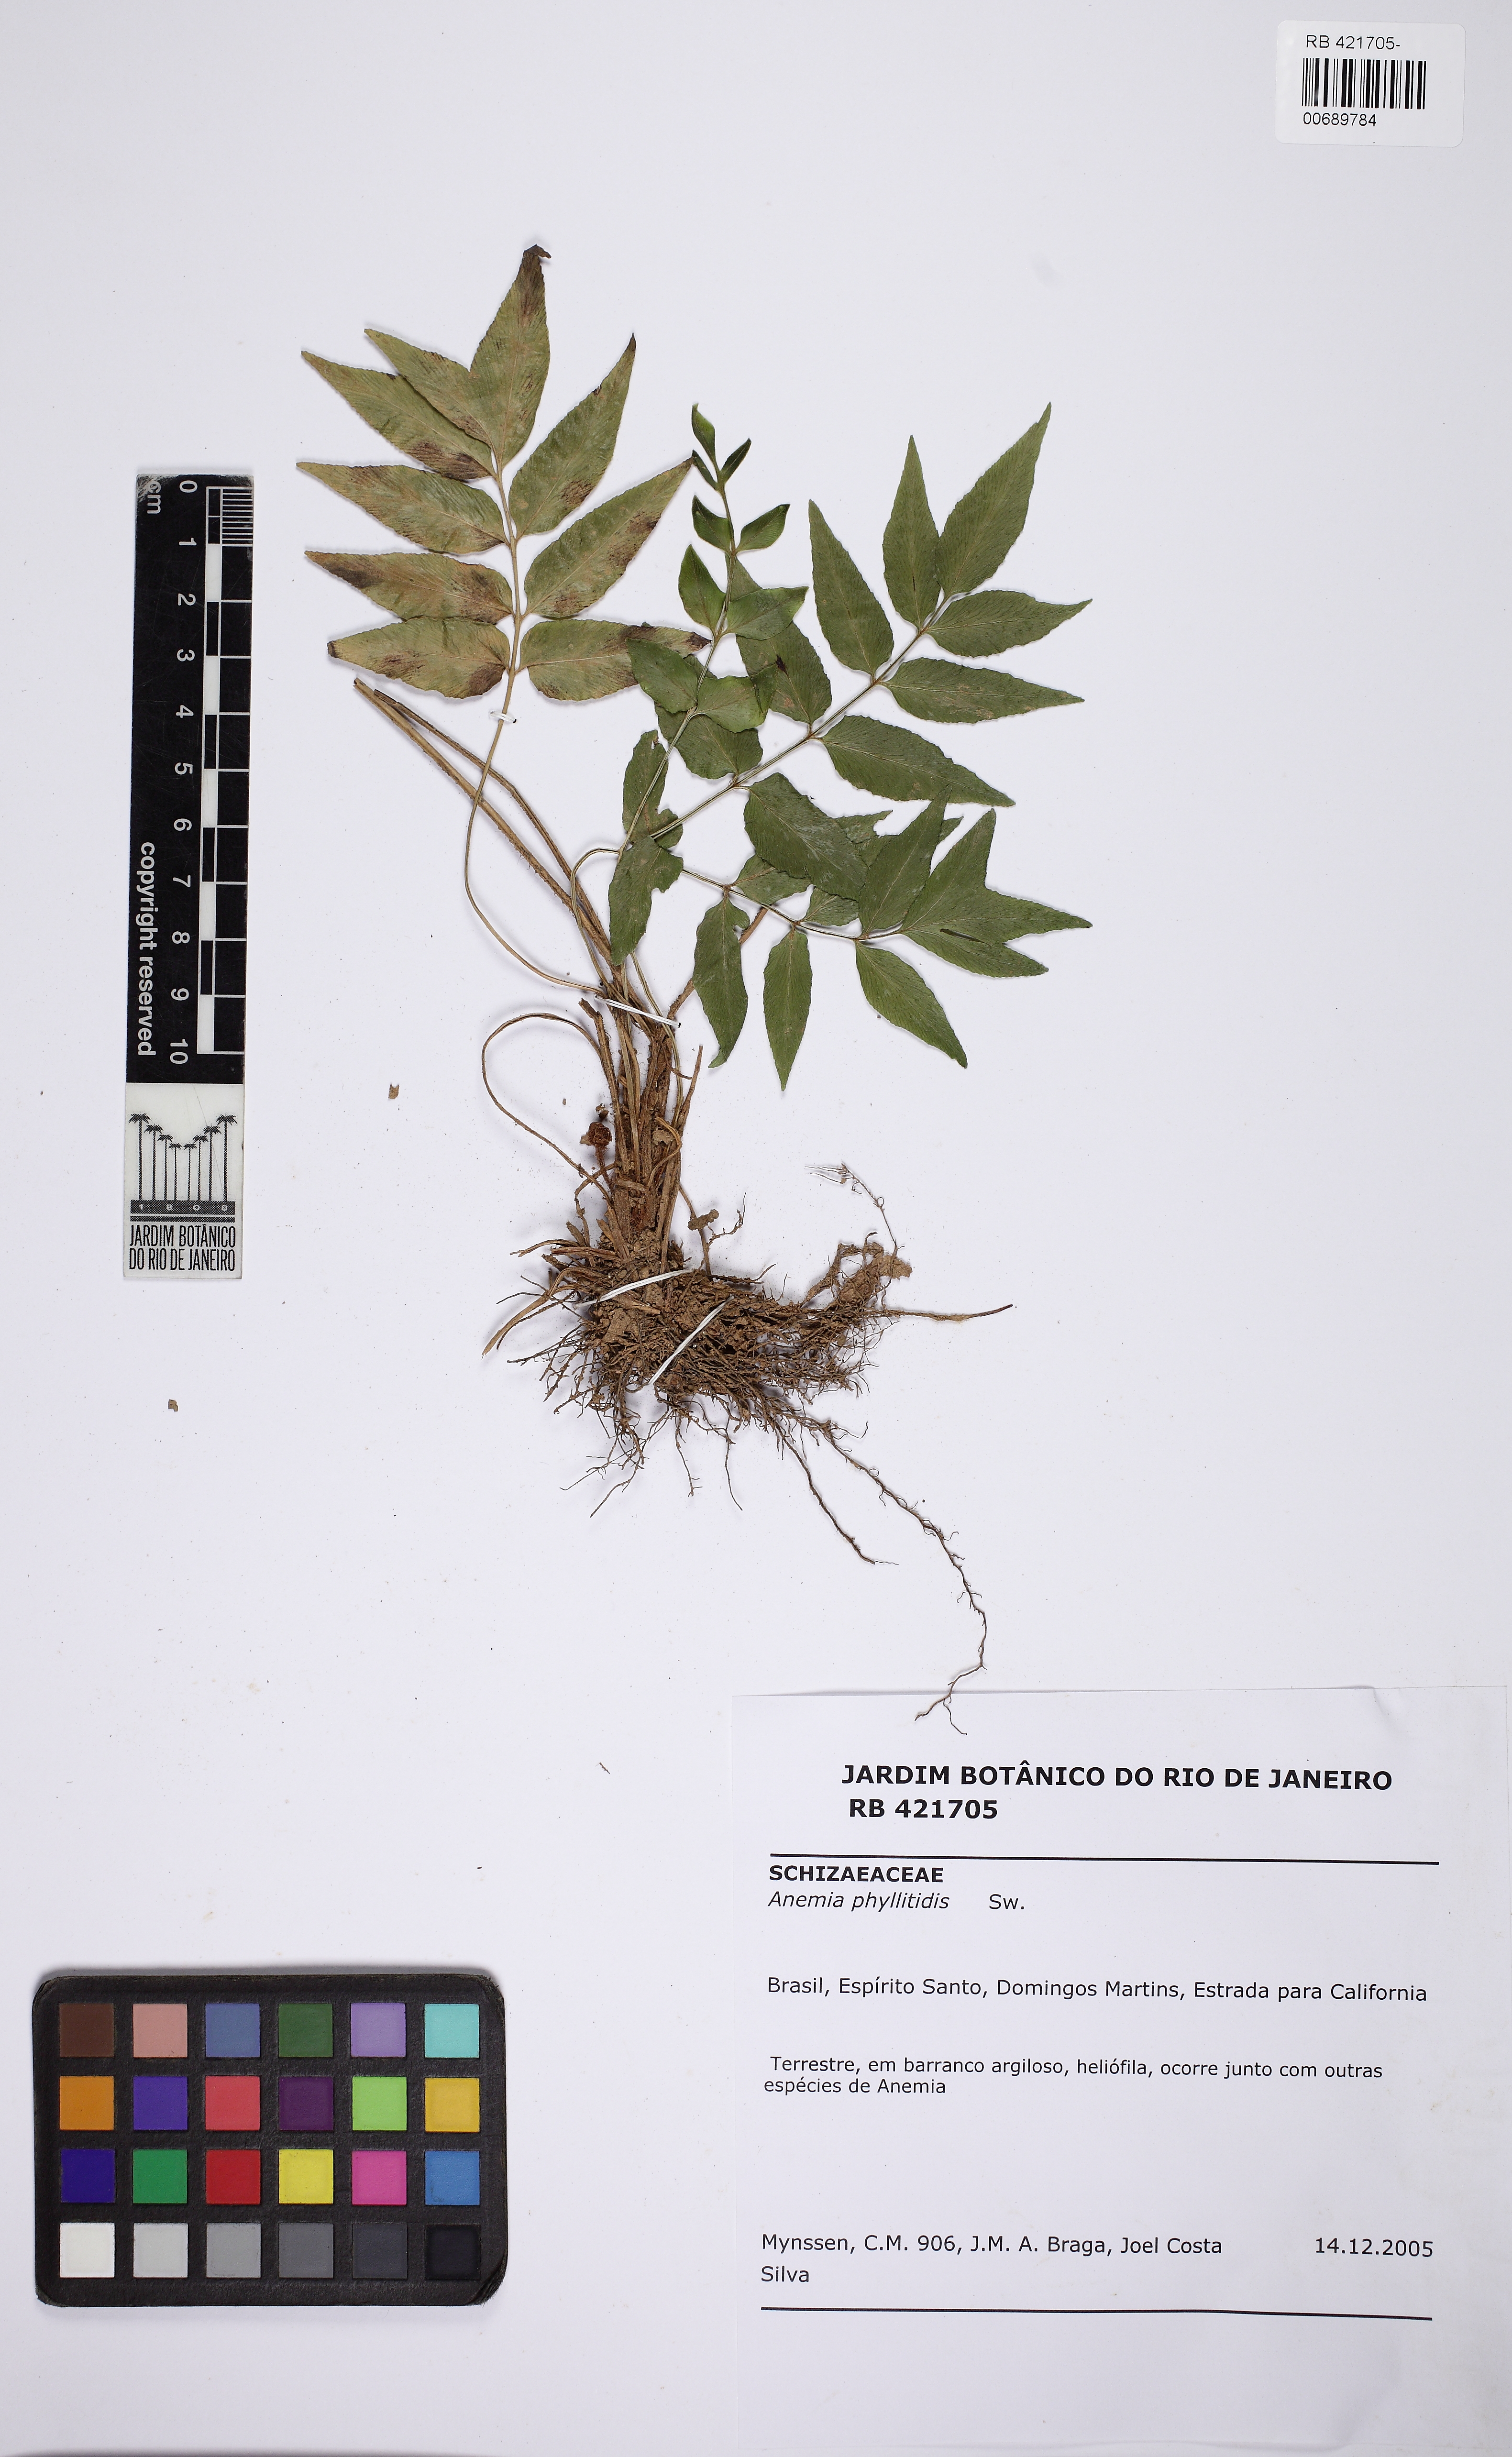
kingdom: Plantae
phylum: Tracheophyta
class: Polypodiopsida
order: Schizaeales
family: Anemiaceae
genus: Anemia
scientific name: Anemia phyllitidis
